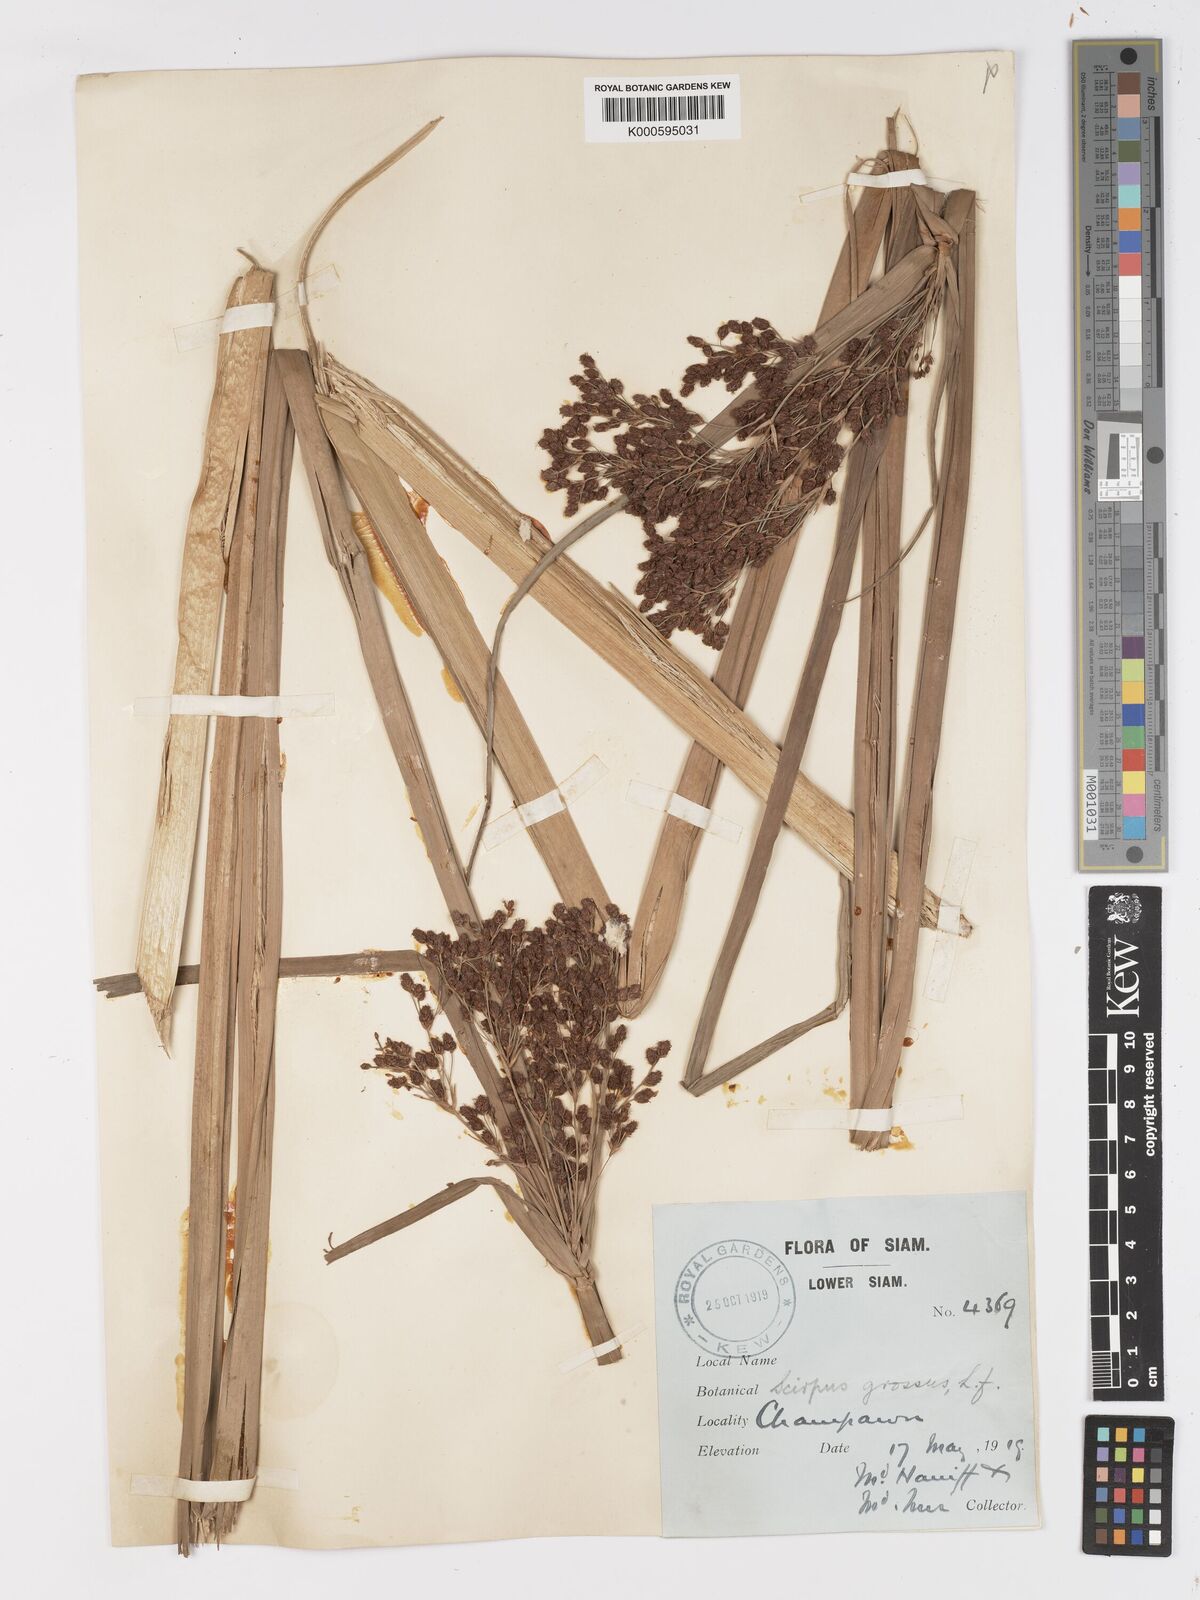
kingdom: Plantae
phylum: Tracheophyta
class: Liliopsida
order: Poales
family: Cyperaceae
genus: Actinoscirpus
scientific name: Actinoscirpus grossus
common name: Giant bur rush
